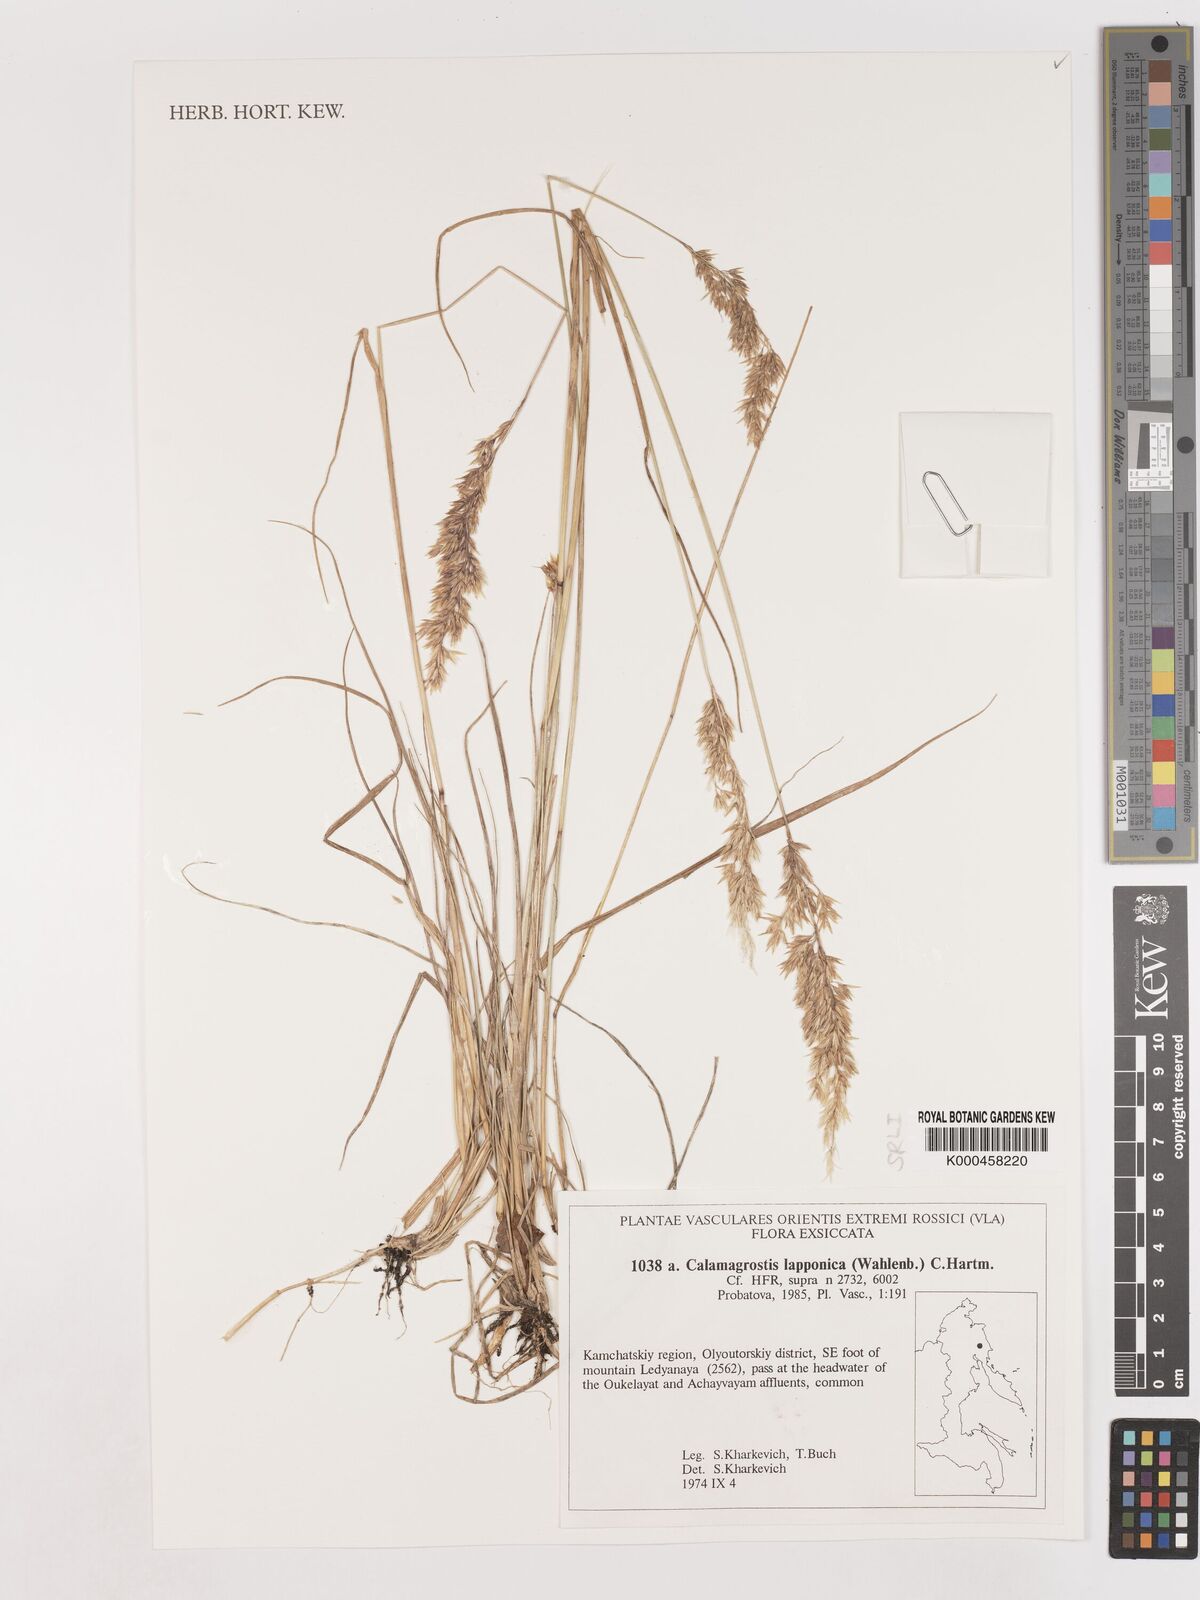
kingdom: Plantae
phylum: Tracheophyta
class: Liliopsida
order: Poales
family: Poaceae
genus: Calamagrostis
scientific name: Calamagrostis
